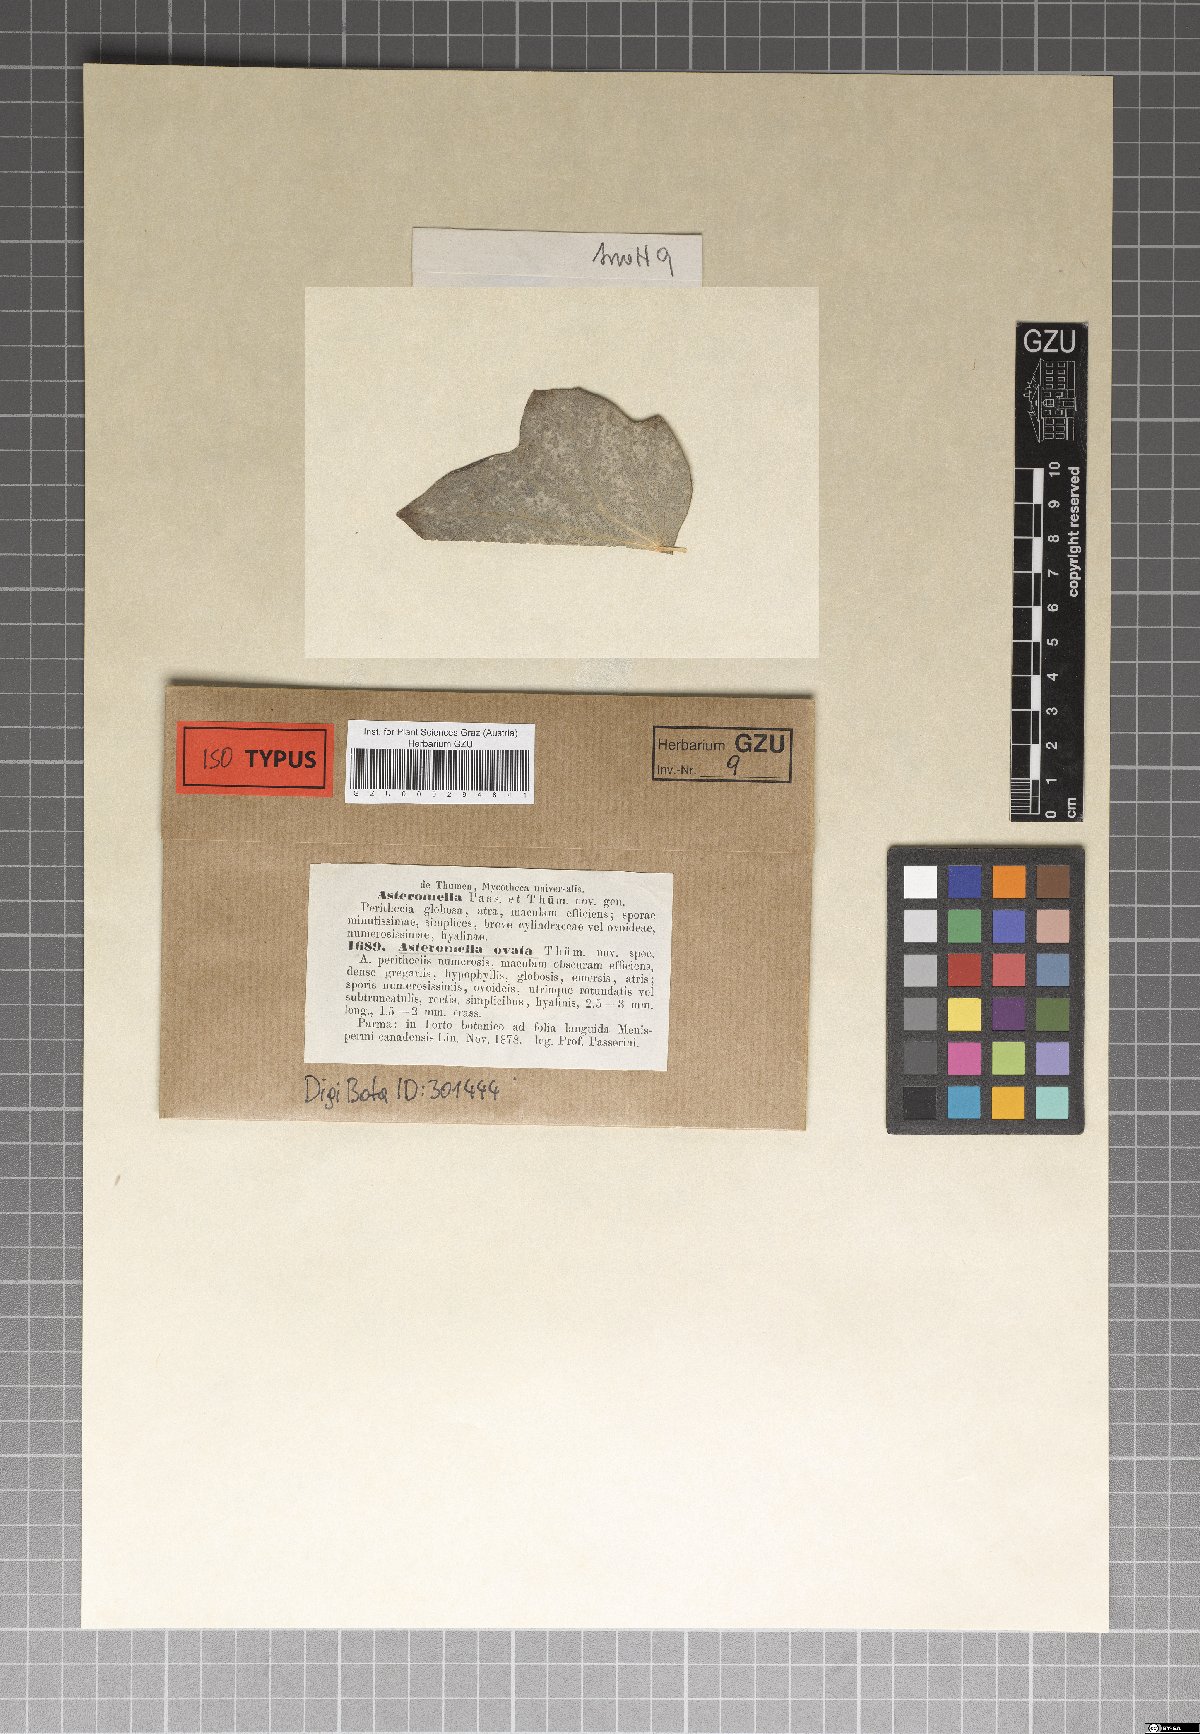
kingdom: Fungi
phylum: Ascomycota
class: Dothideomycetes
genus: Asteromella
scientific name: Asteromella ovata
